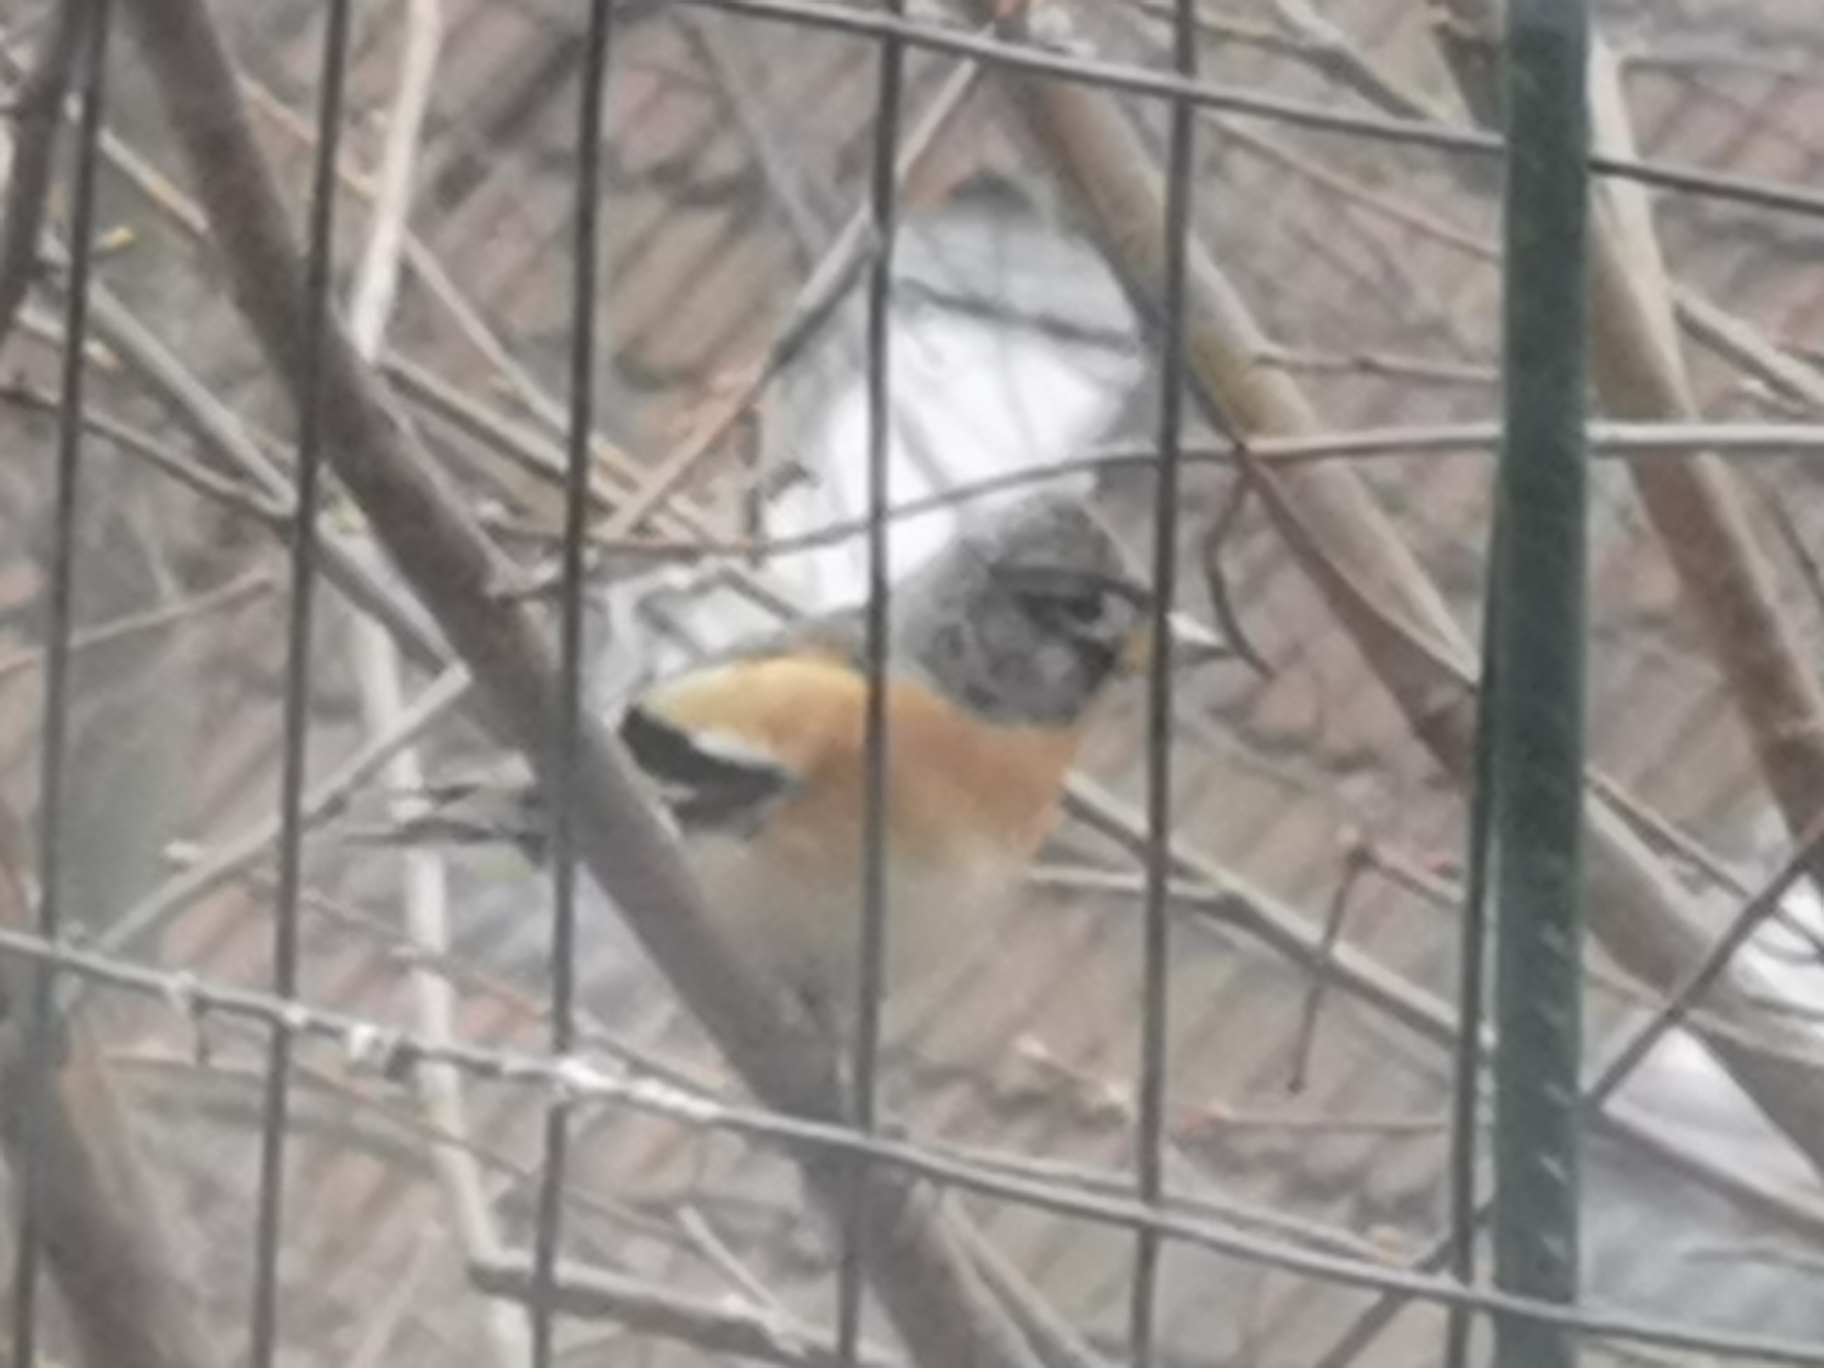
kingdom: Animalia
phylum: Chordata
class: Aves
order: Passeriformes
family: Fringillidae
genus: Fringilla
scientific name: Fringilla montifringilla
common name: Kvækerfinke
